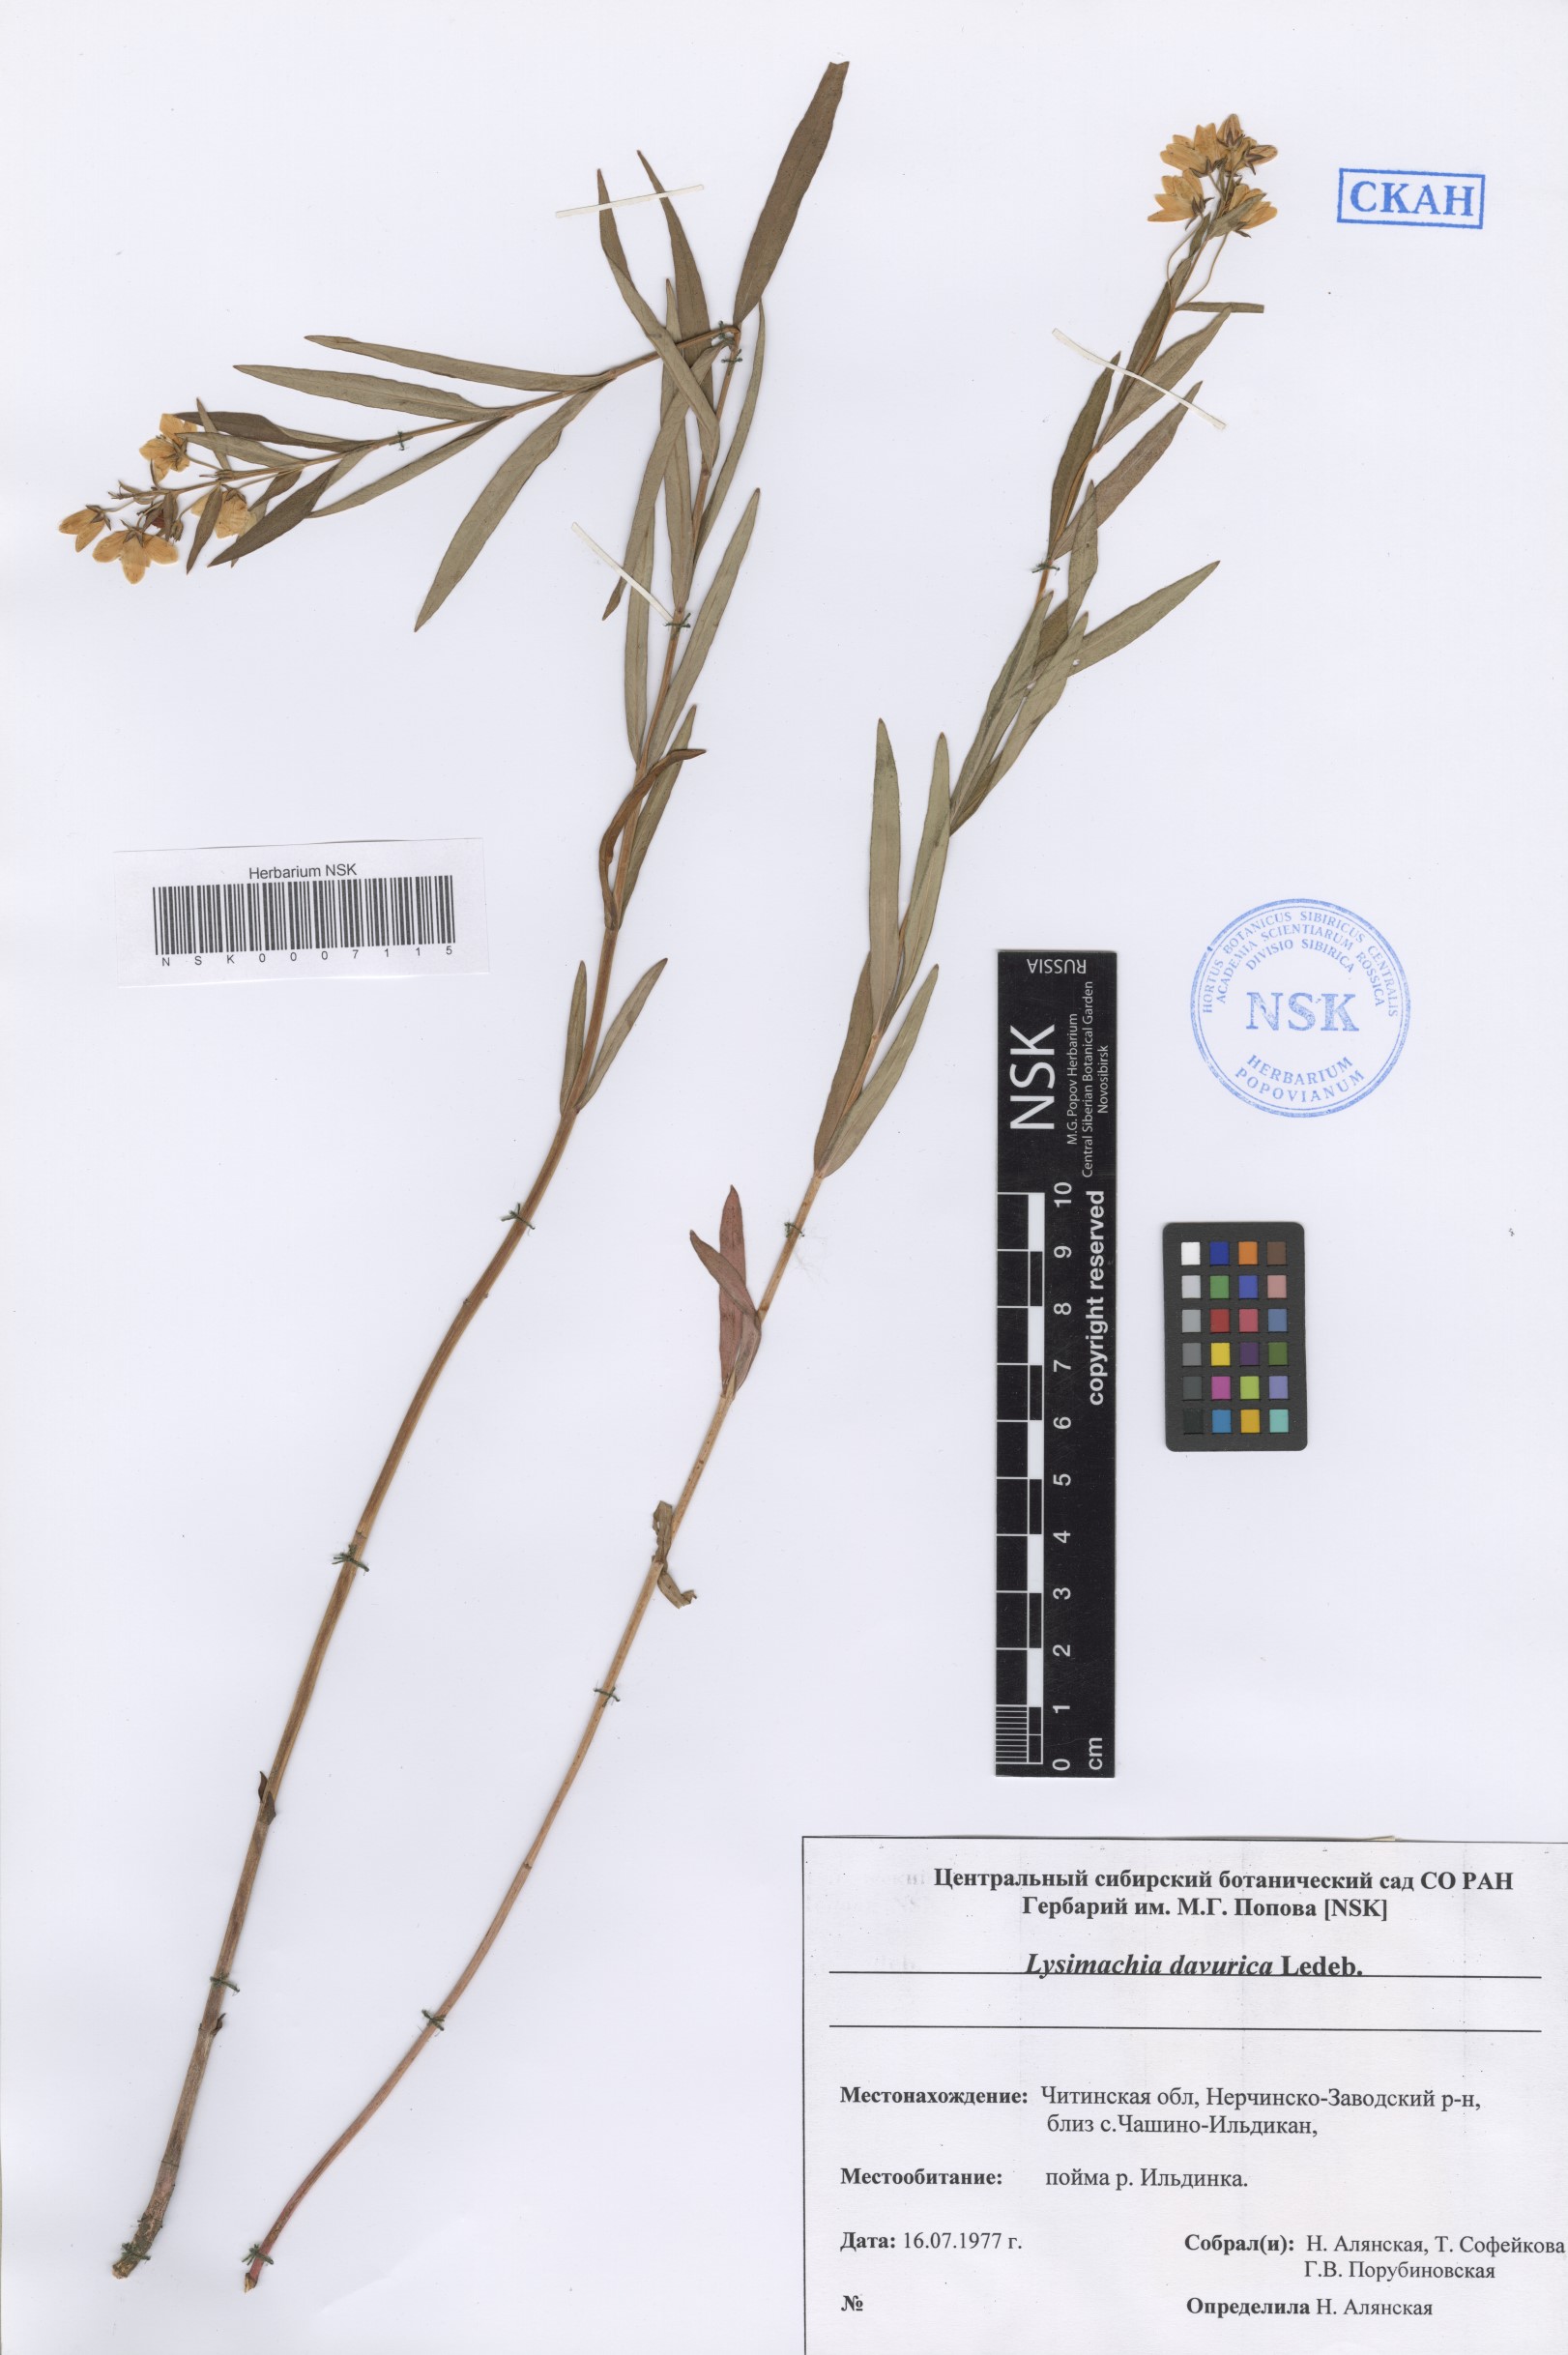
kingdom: Plantae
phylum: Tracheophyta
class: Magnoliopsida
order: Ericales
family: Primulaceae
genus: Lysimachia
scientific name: Lysimachia davurica
